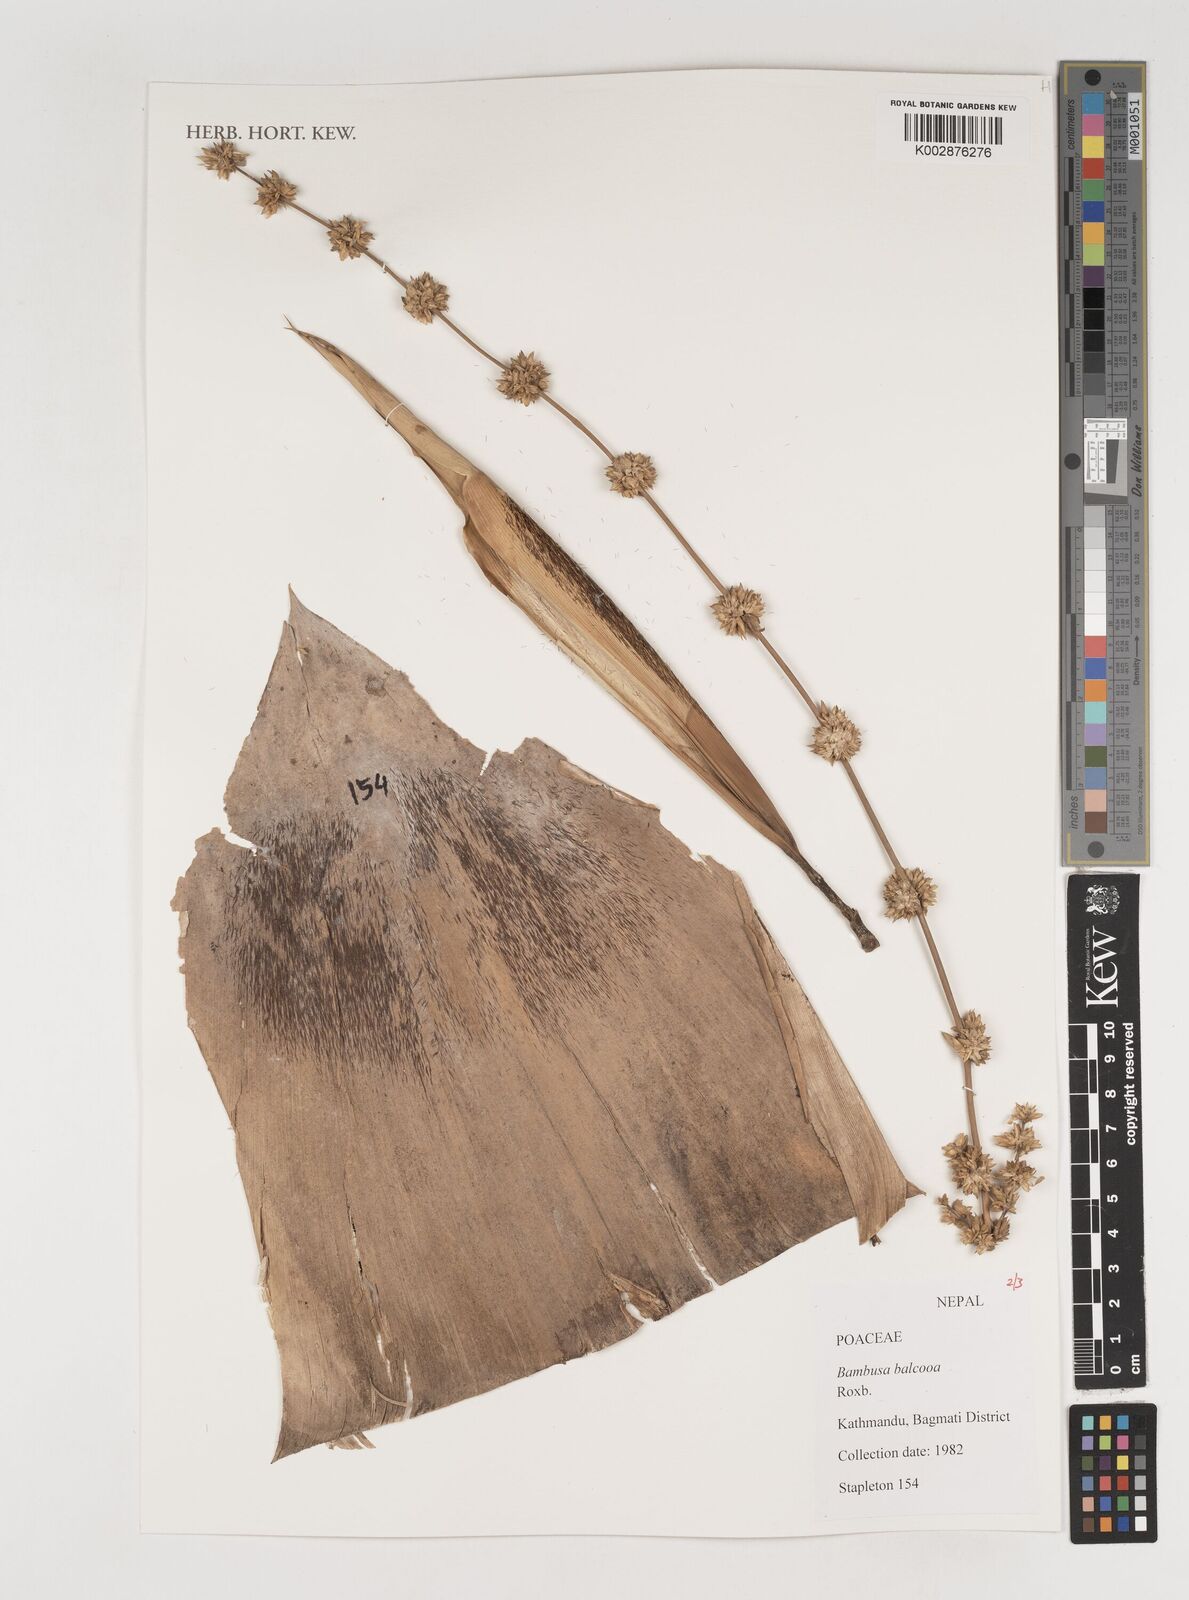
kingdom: Plantae
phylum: Tracheophyta
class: Liliopsida
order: Poales
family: Poaceae
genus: Bambusa
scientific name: Bambusa balcooa
